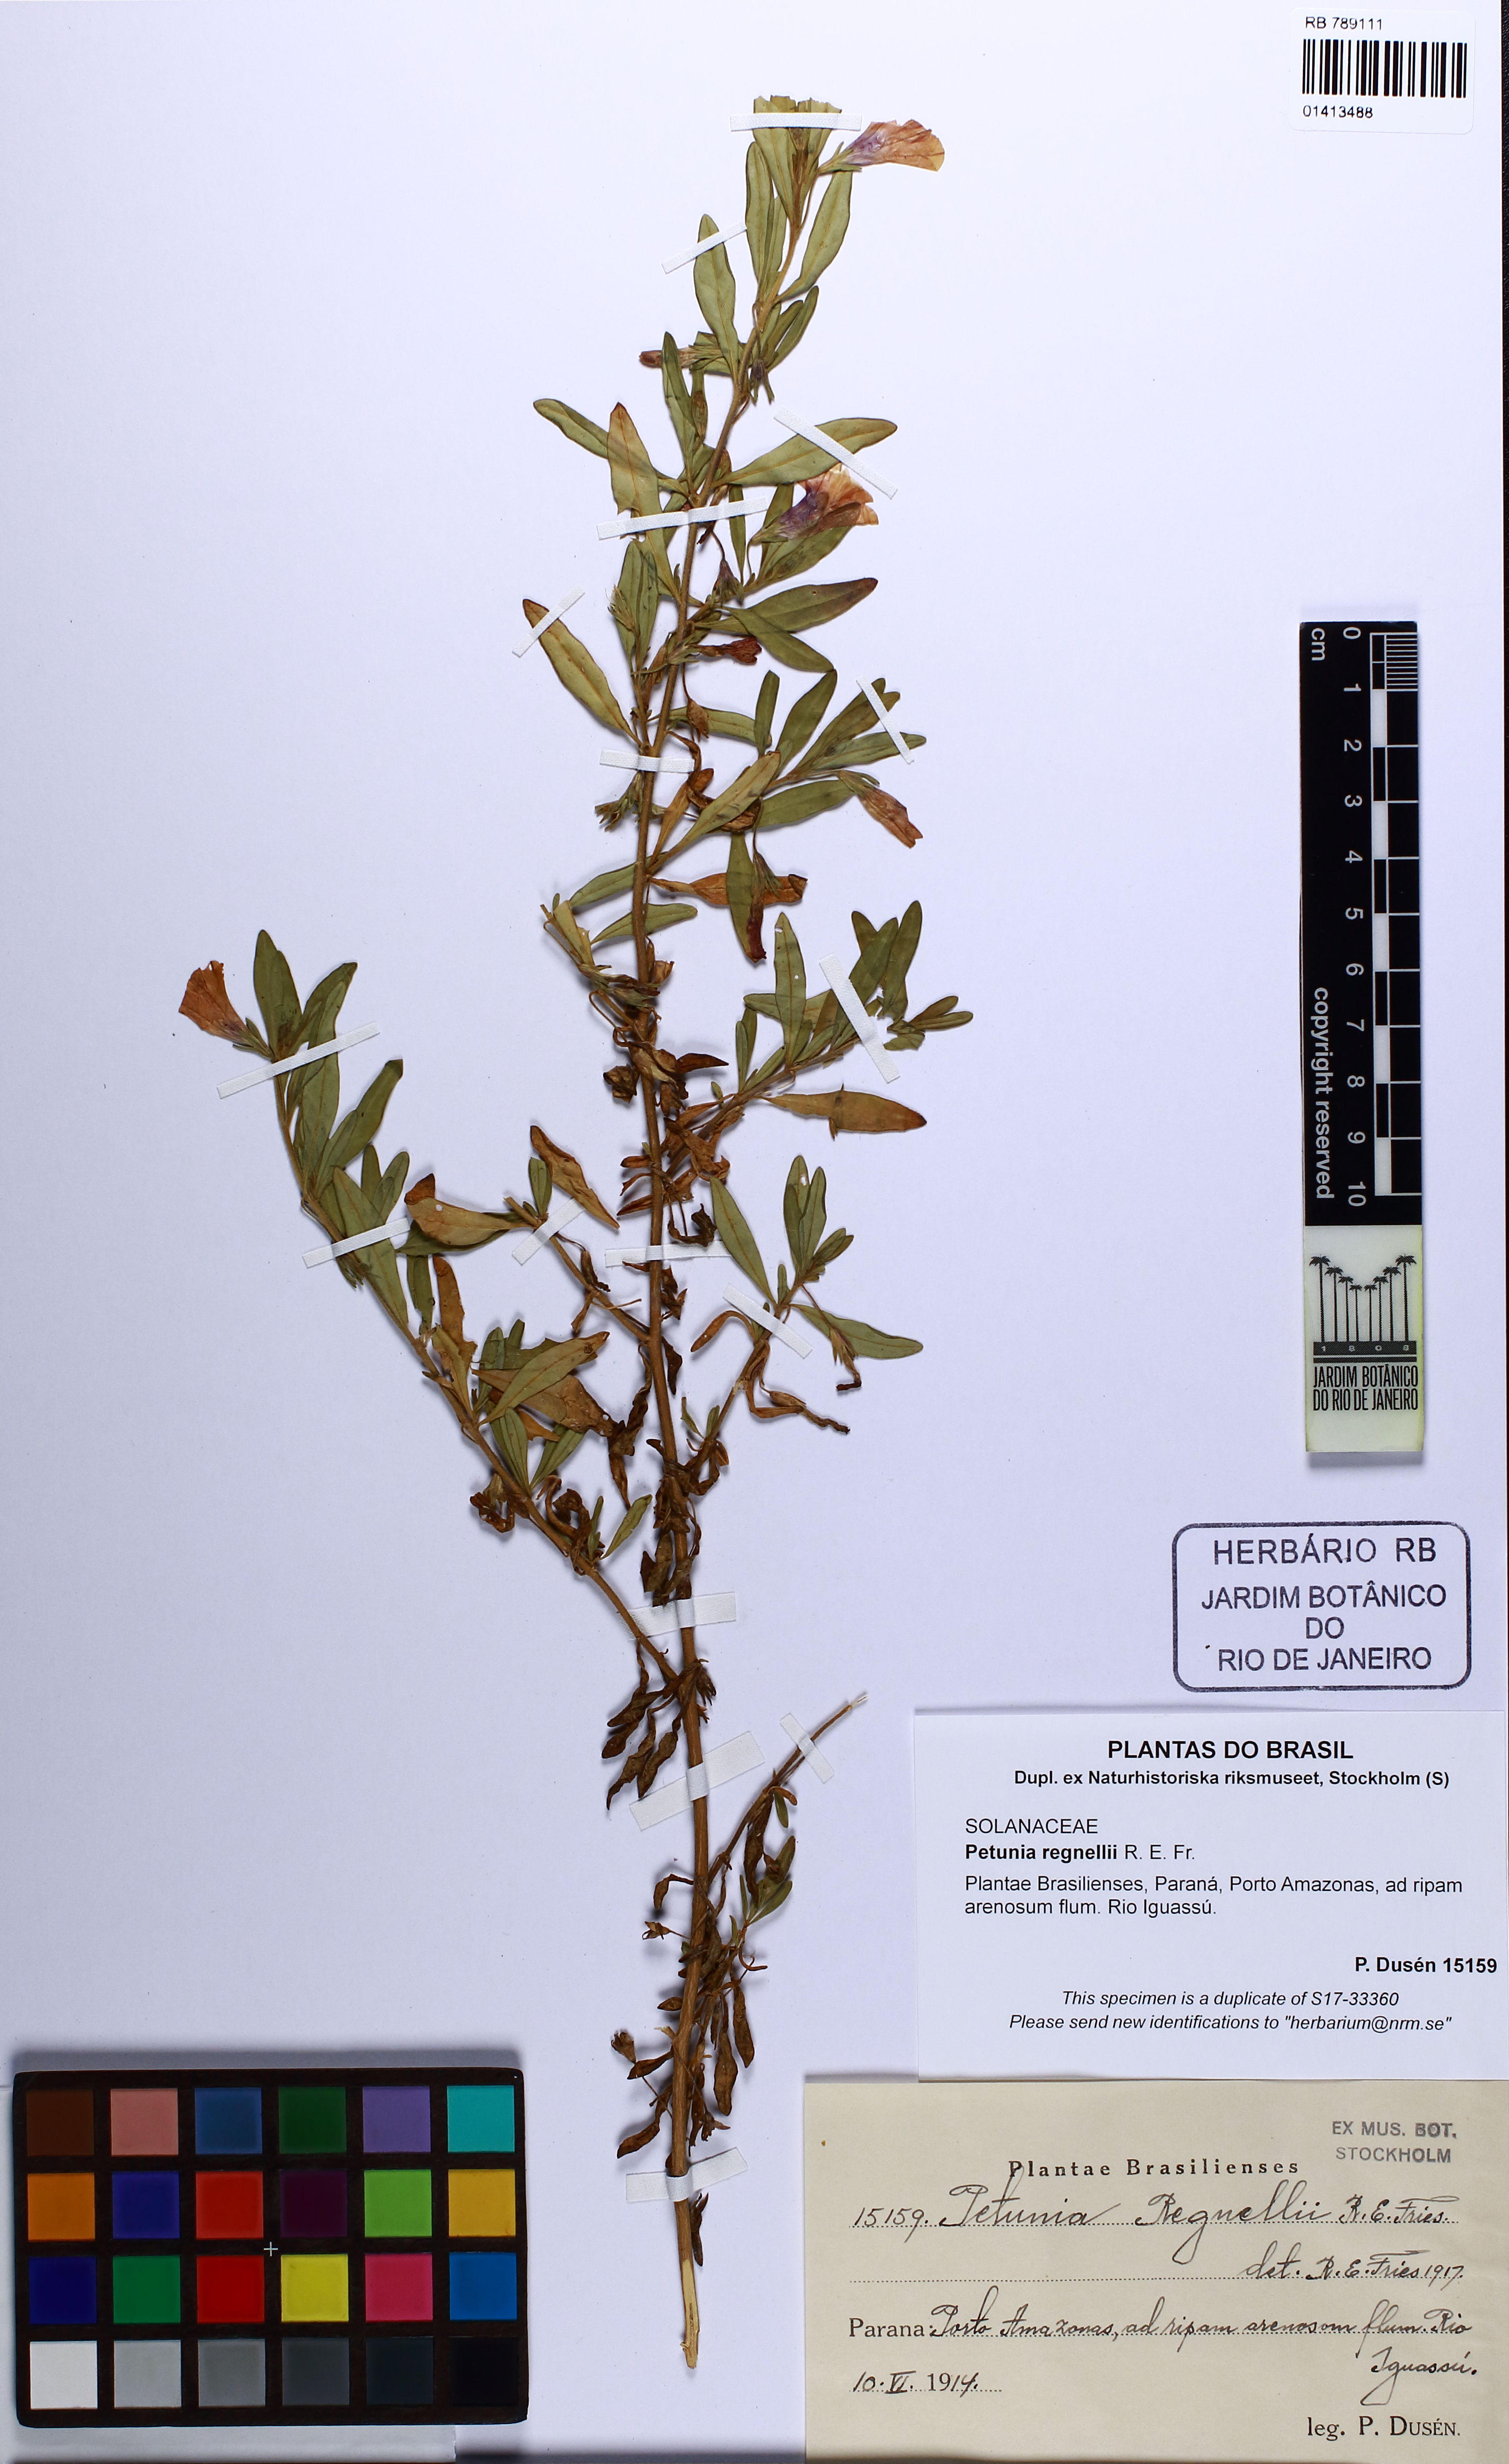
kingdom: Plantae
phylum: Tracheophyta
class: Magnoliopsida
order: Solanales
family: Solanaceae
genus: Calibrachoa
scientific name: Calibrachoa linoides
